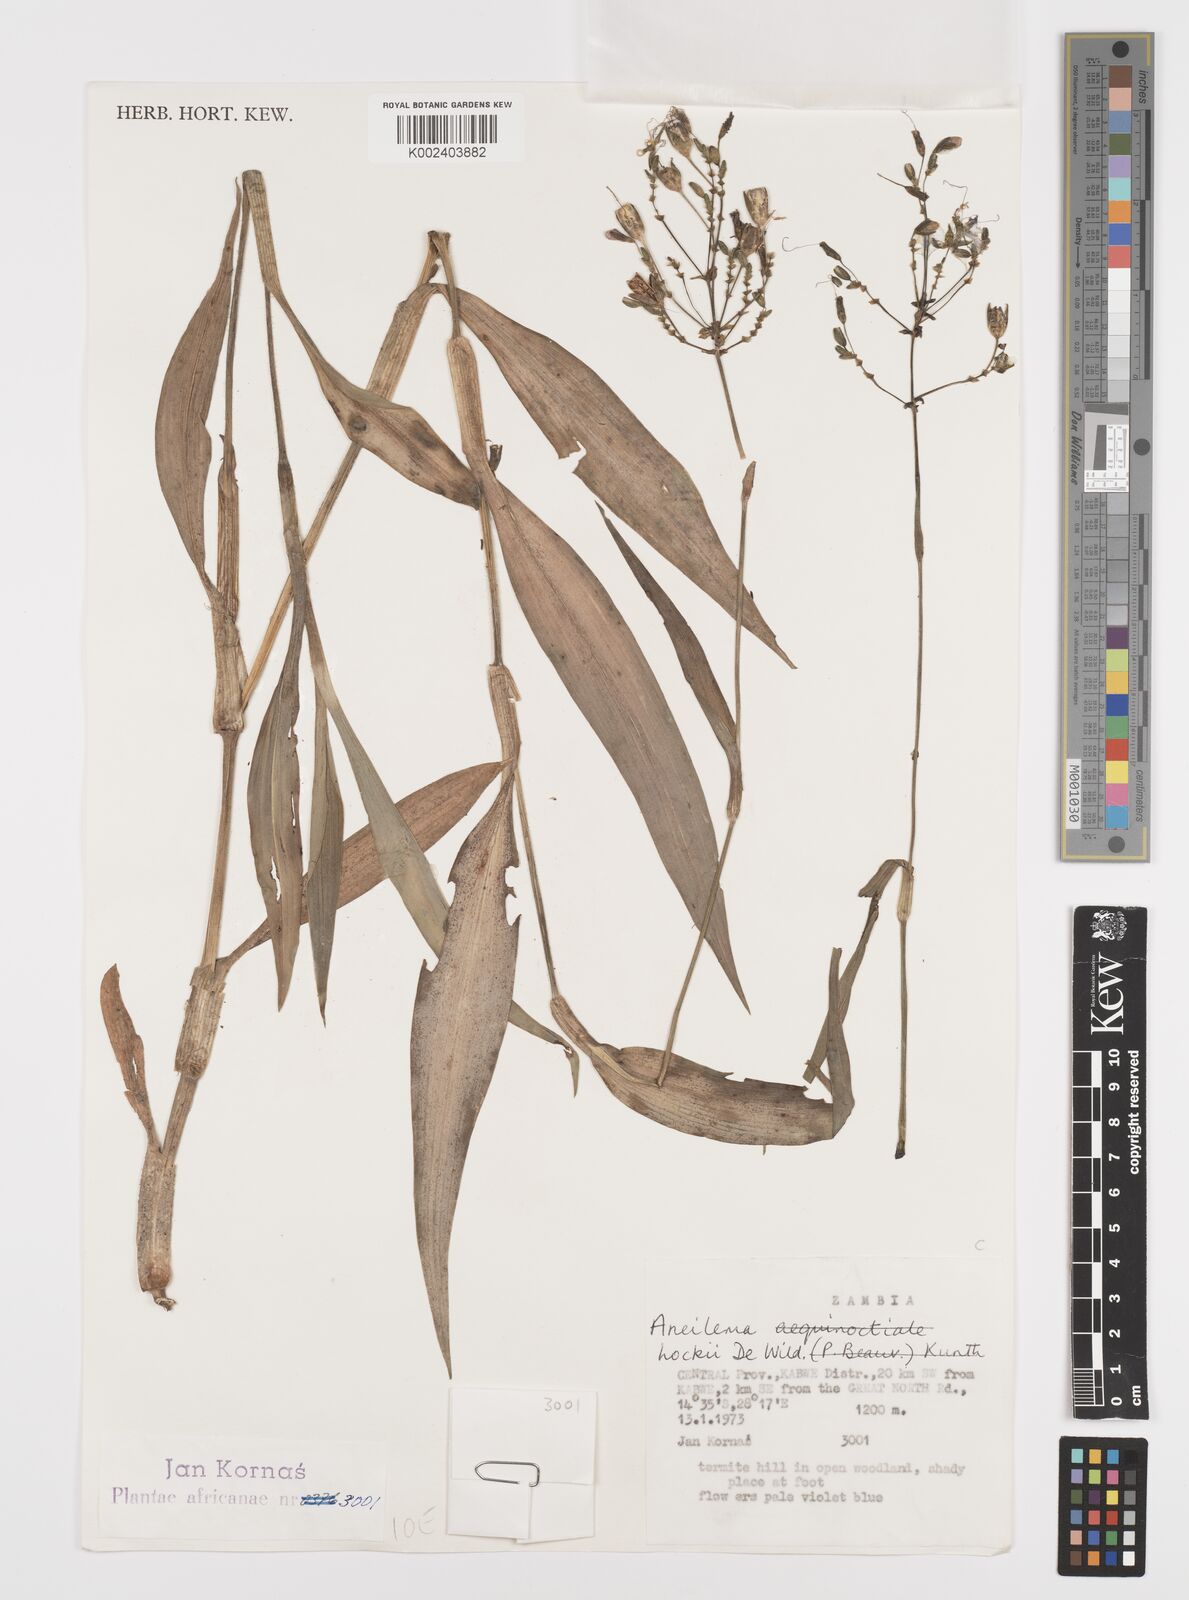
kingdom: Plantae
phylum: Tracheophyta
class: Liliopsida
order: Commelinales
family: Commelinaceae
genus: Aneilema
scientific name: Aneilema hockii
